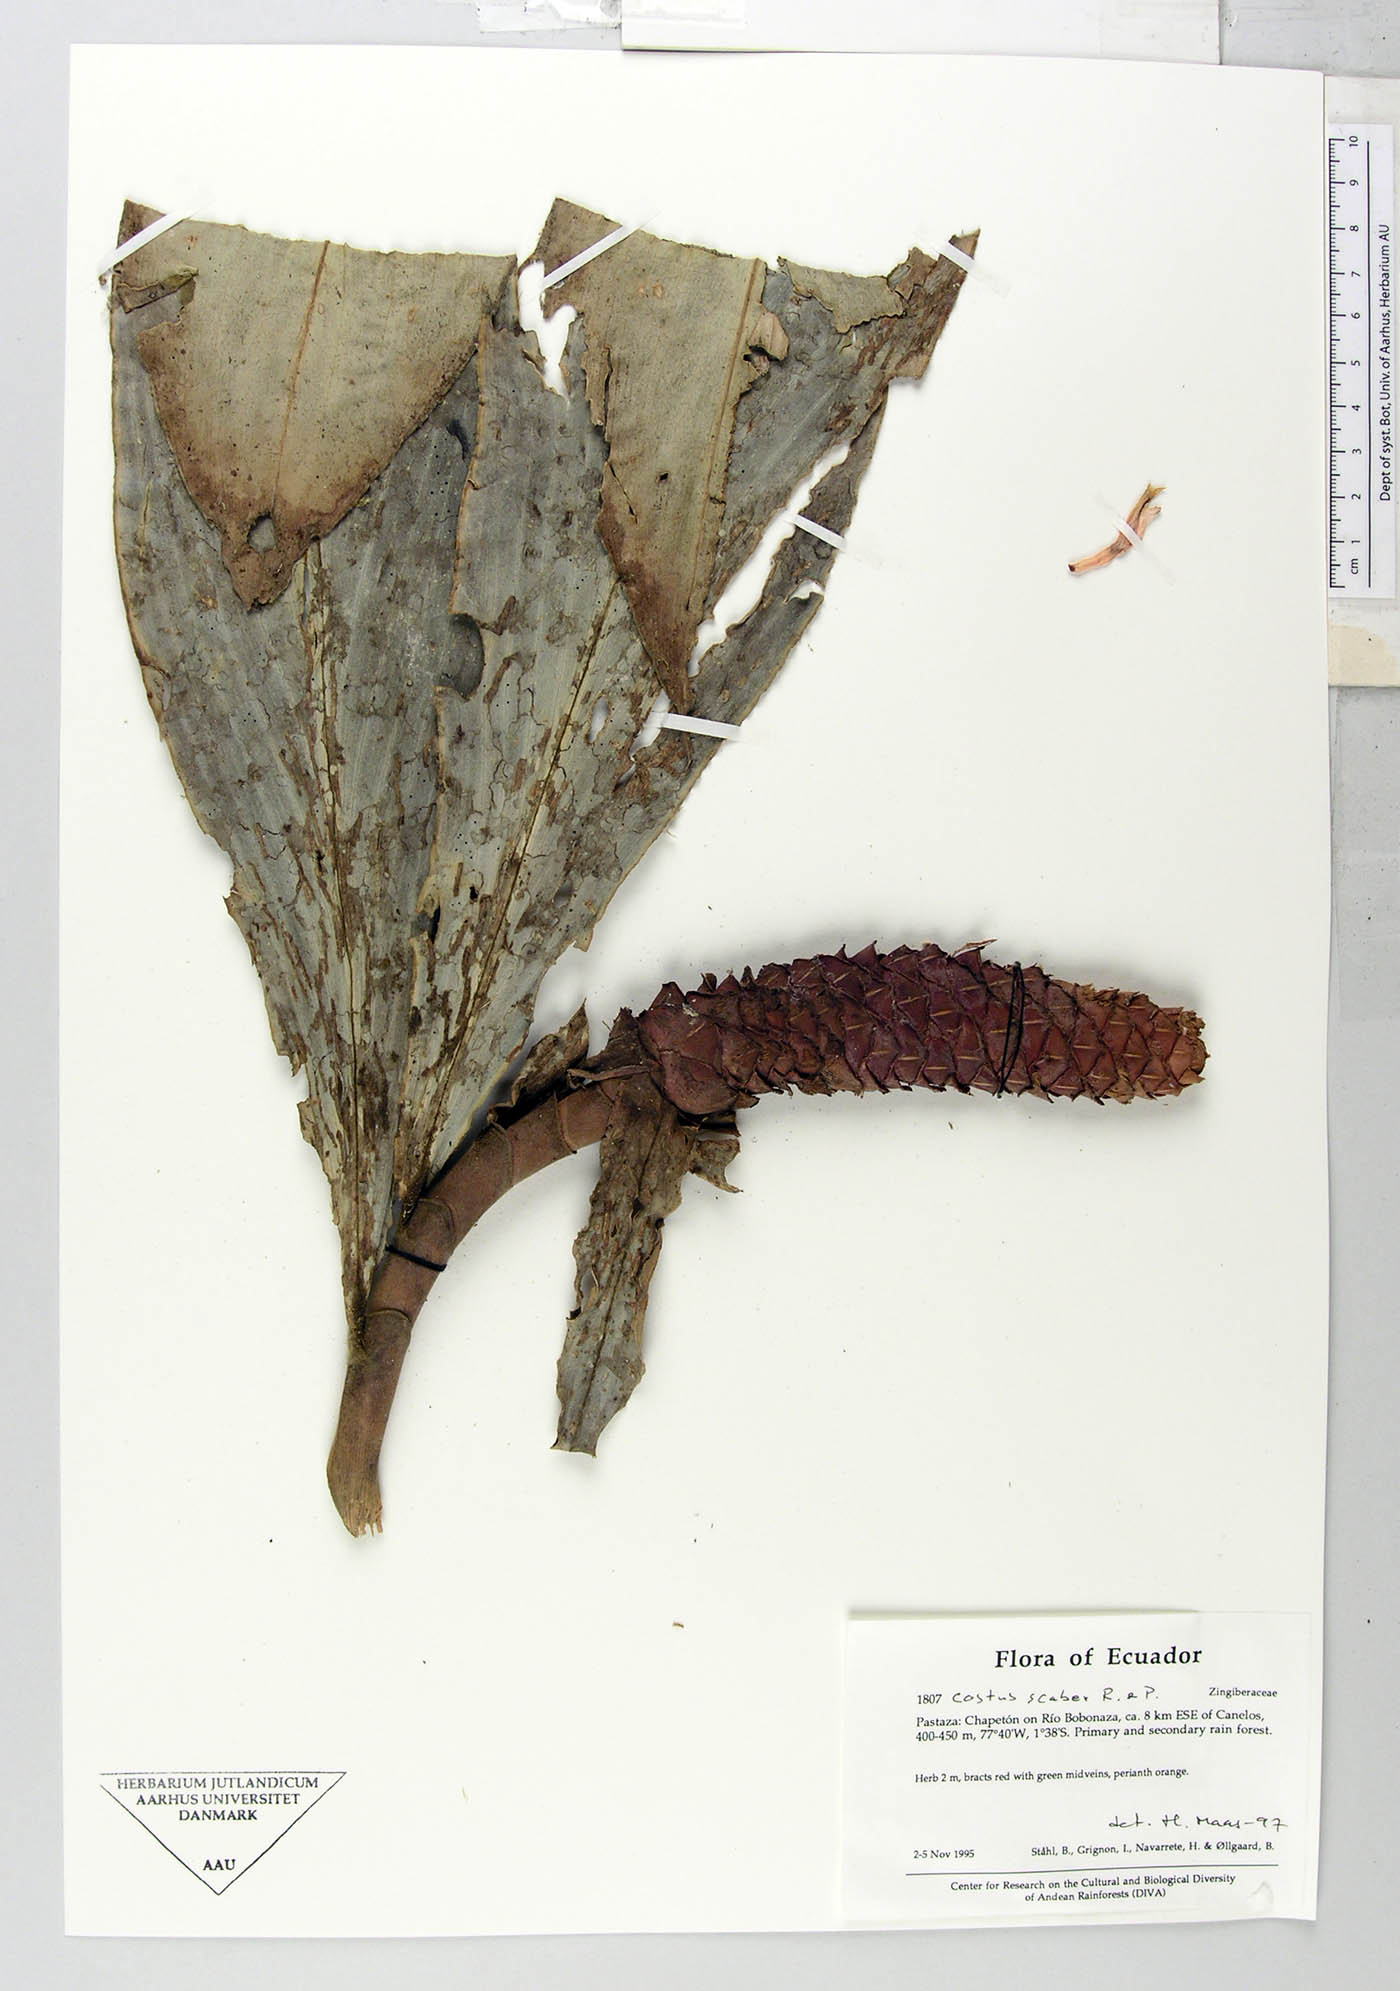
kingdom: Plantae
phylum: Tracheophyta
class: Liliopsida
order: Zingiberales
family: Costaceae
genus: Costus
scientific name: Costus scaber
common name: Spiral head ginger
